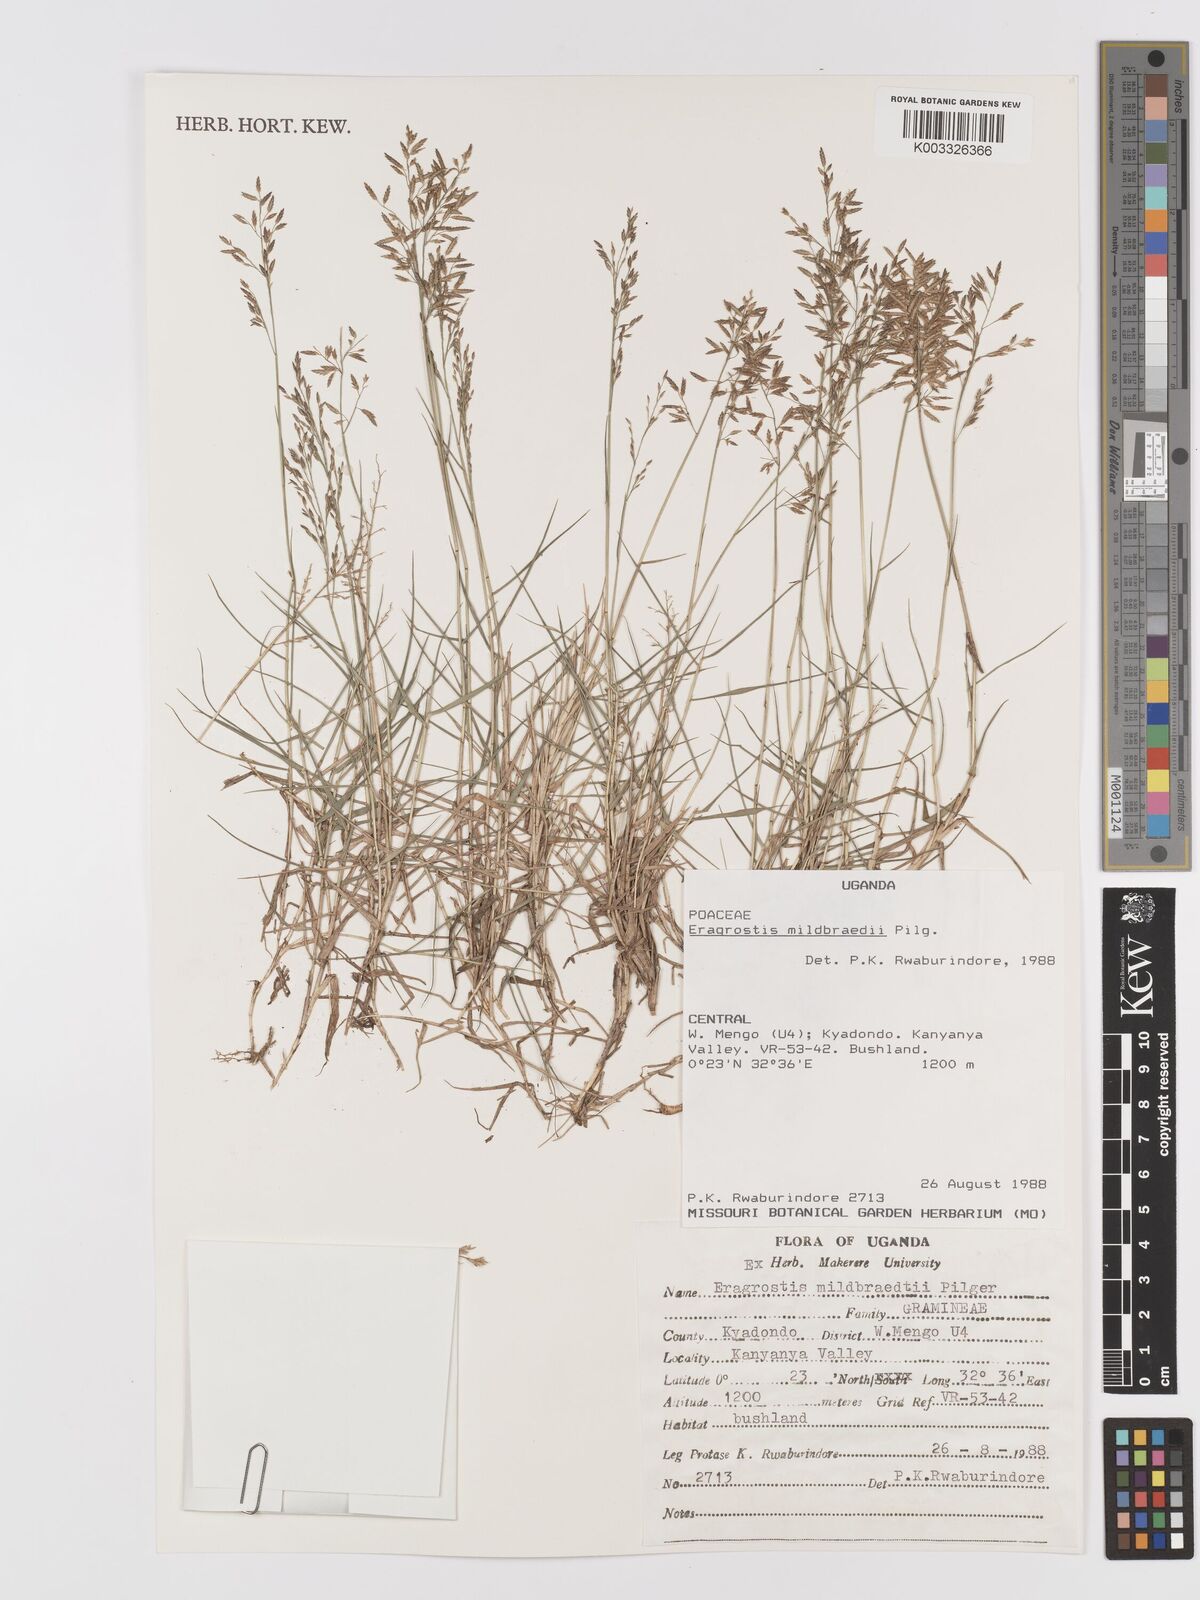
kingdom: Plantae
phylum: Tracheophyta
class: Liliopsida
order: Poales
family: Poaceae
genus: Eragrostis
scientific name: Eragrostis mildbraedii
